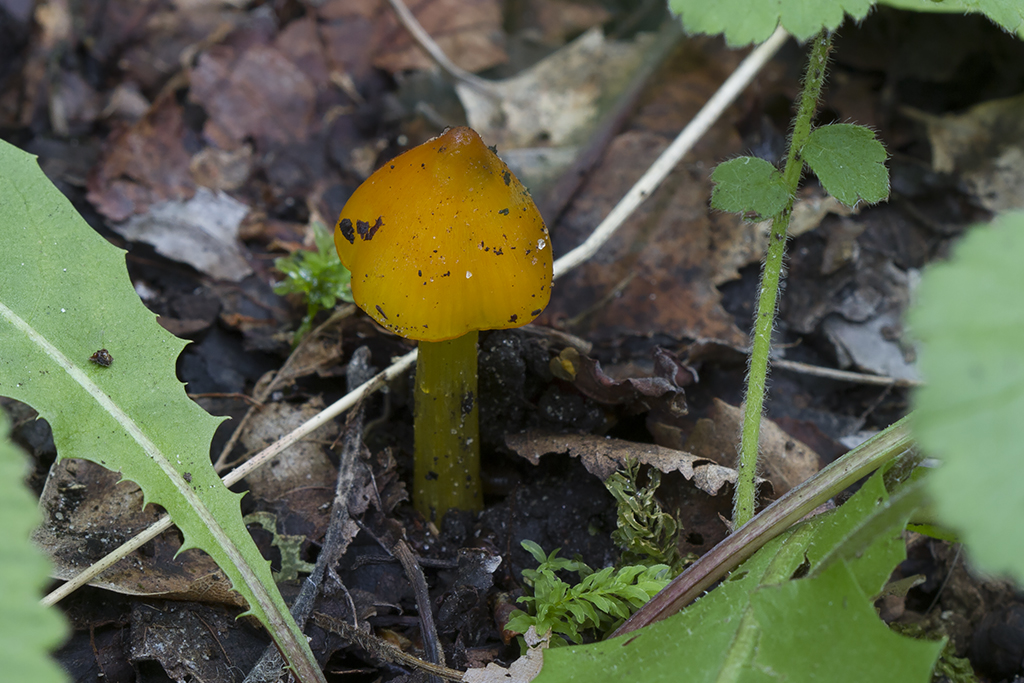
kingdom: Fungi
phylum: Basidiomycota
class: Agaricomycetes
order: Agaricales
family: Hygrophoraceae
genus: Hygrocybe
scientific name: Hygrocybe conica
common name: kegle-vokshat
